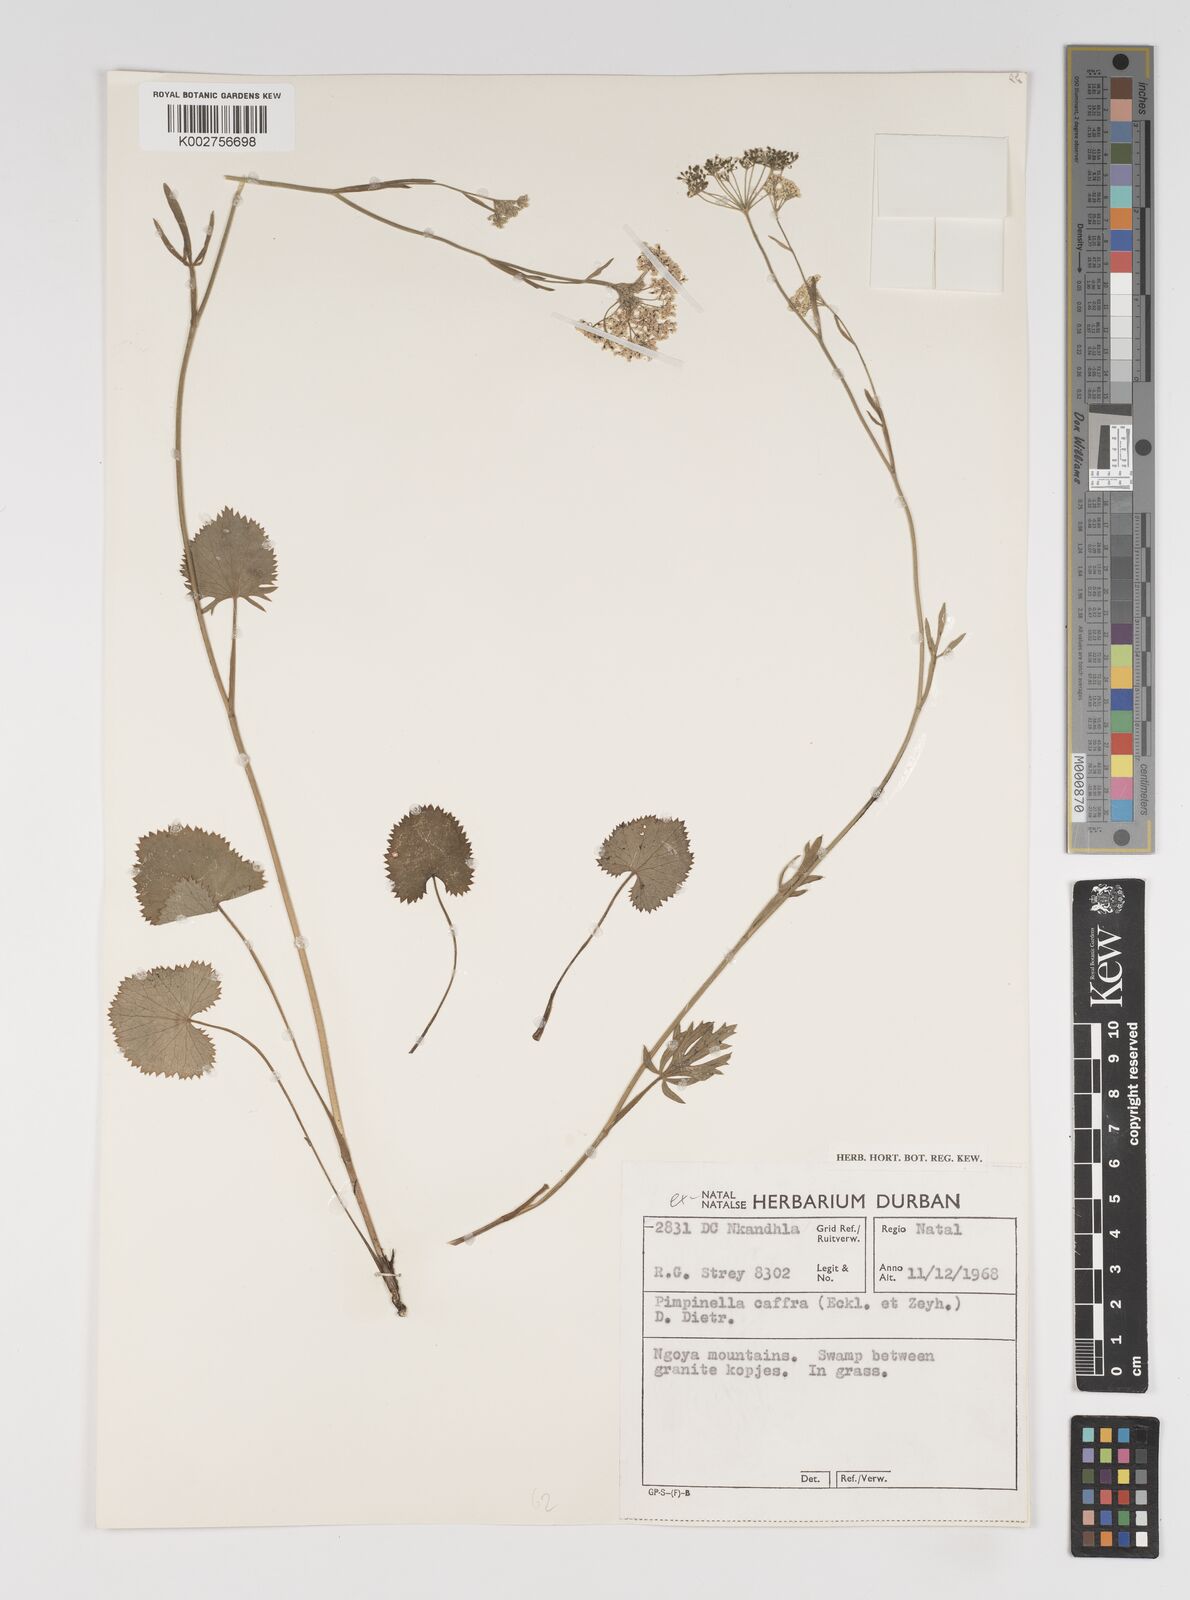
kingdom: Plantae
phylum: Tracheophyta
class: Magnoliopsida
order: Apiales
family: Apiaceae
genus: Pimpinella
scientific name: Pimpinella
